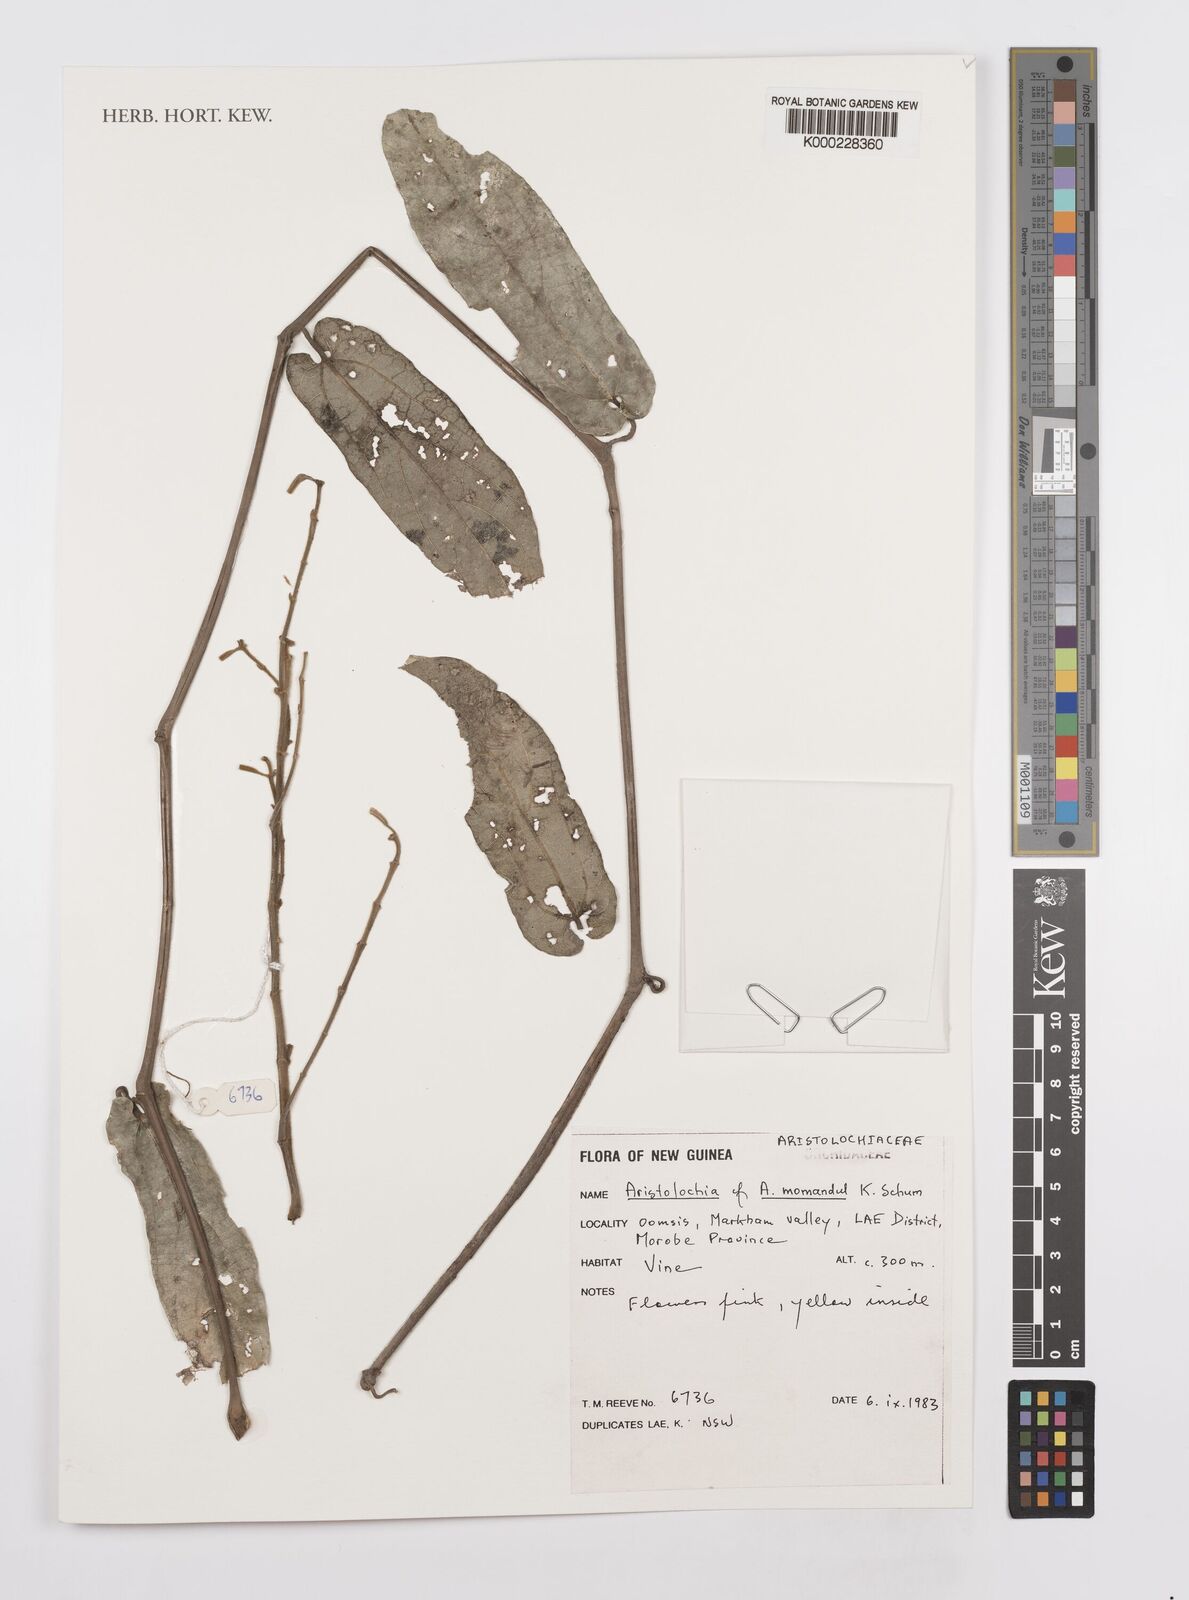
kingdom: Plantae
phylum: Tracheophyta
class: Magnoliopsida
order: Piperales
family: Aristolochiaceae
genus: Aristolochia
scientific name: Aristolochia momandul
